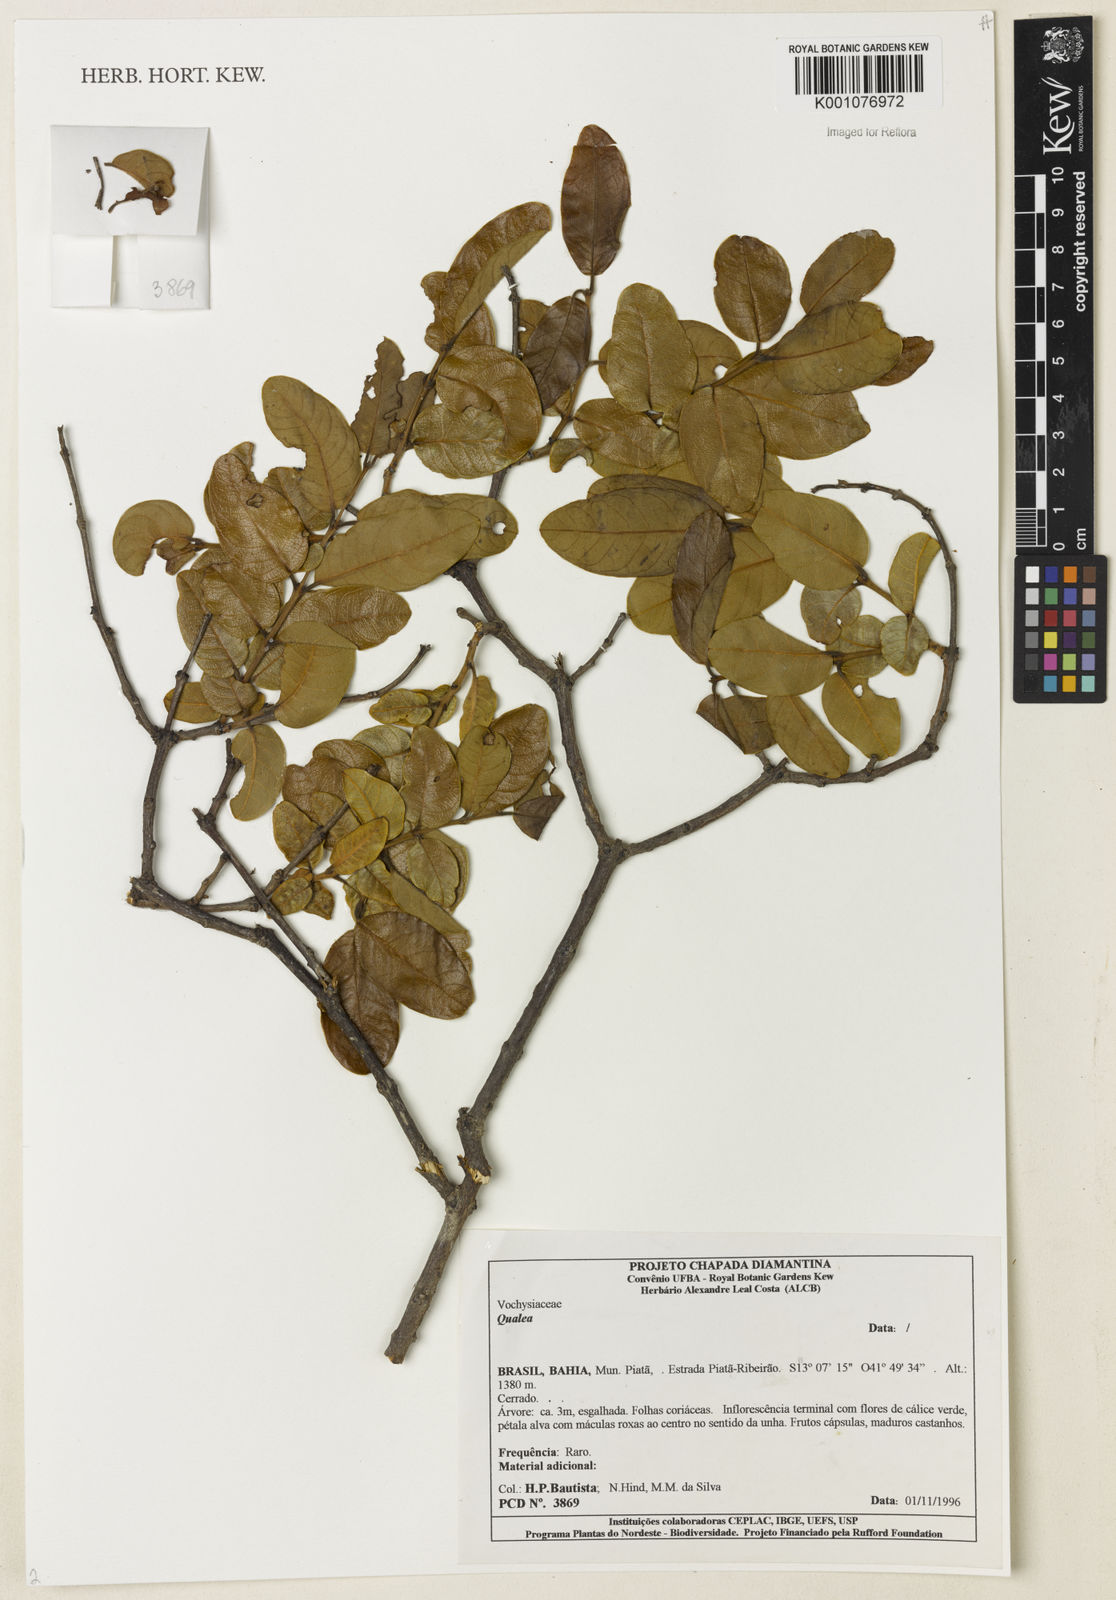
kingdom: Plantae
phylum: Tracheophyta
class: Magnoliopsida
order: Myrtales
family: Vochysiaceae
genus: Qualea
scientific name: Qualea
